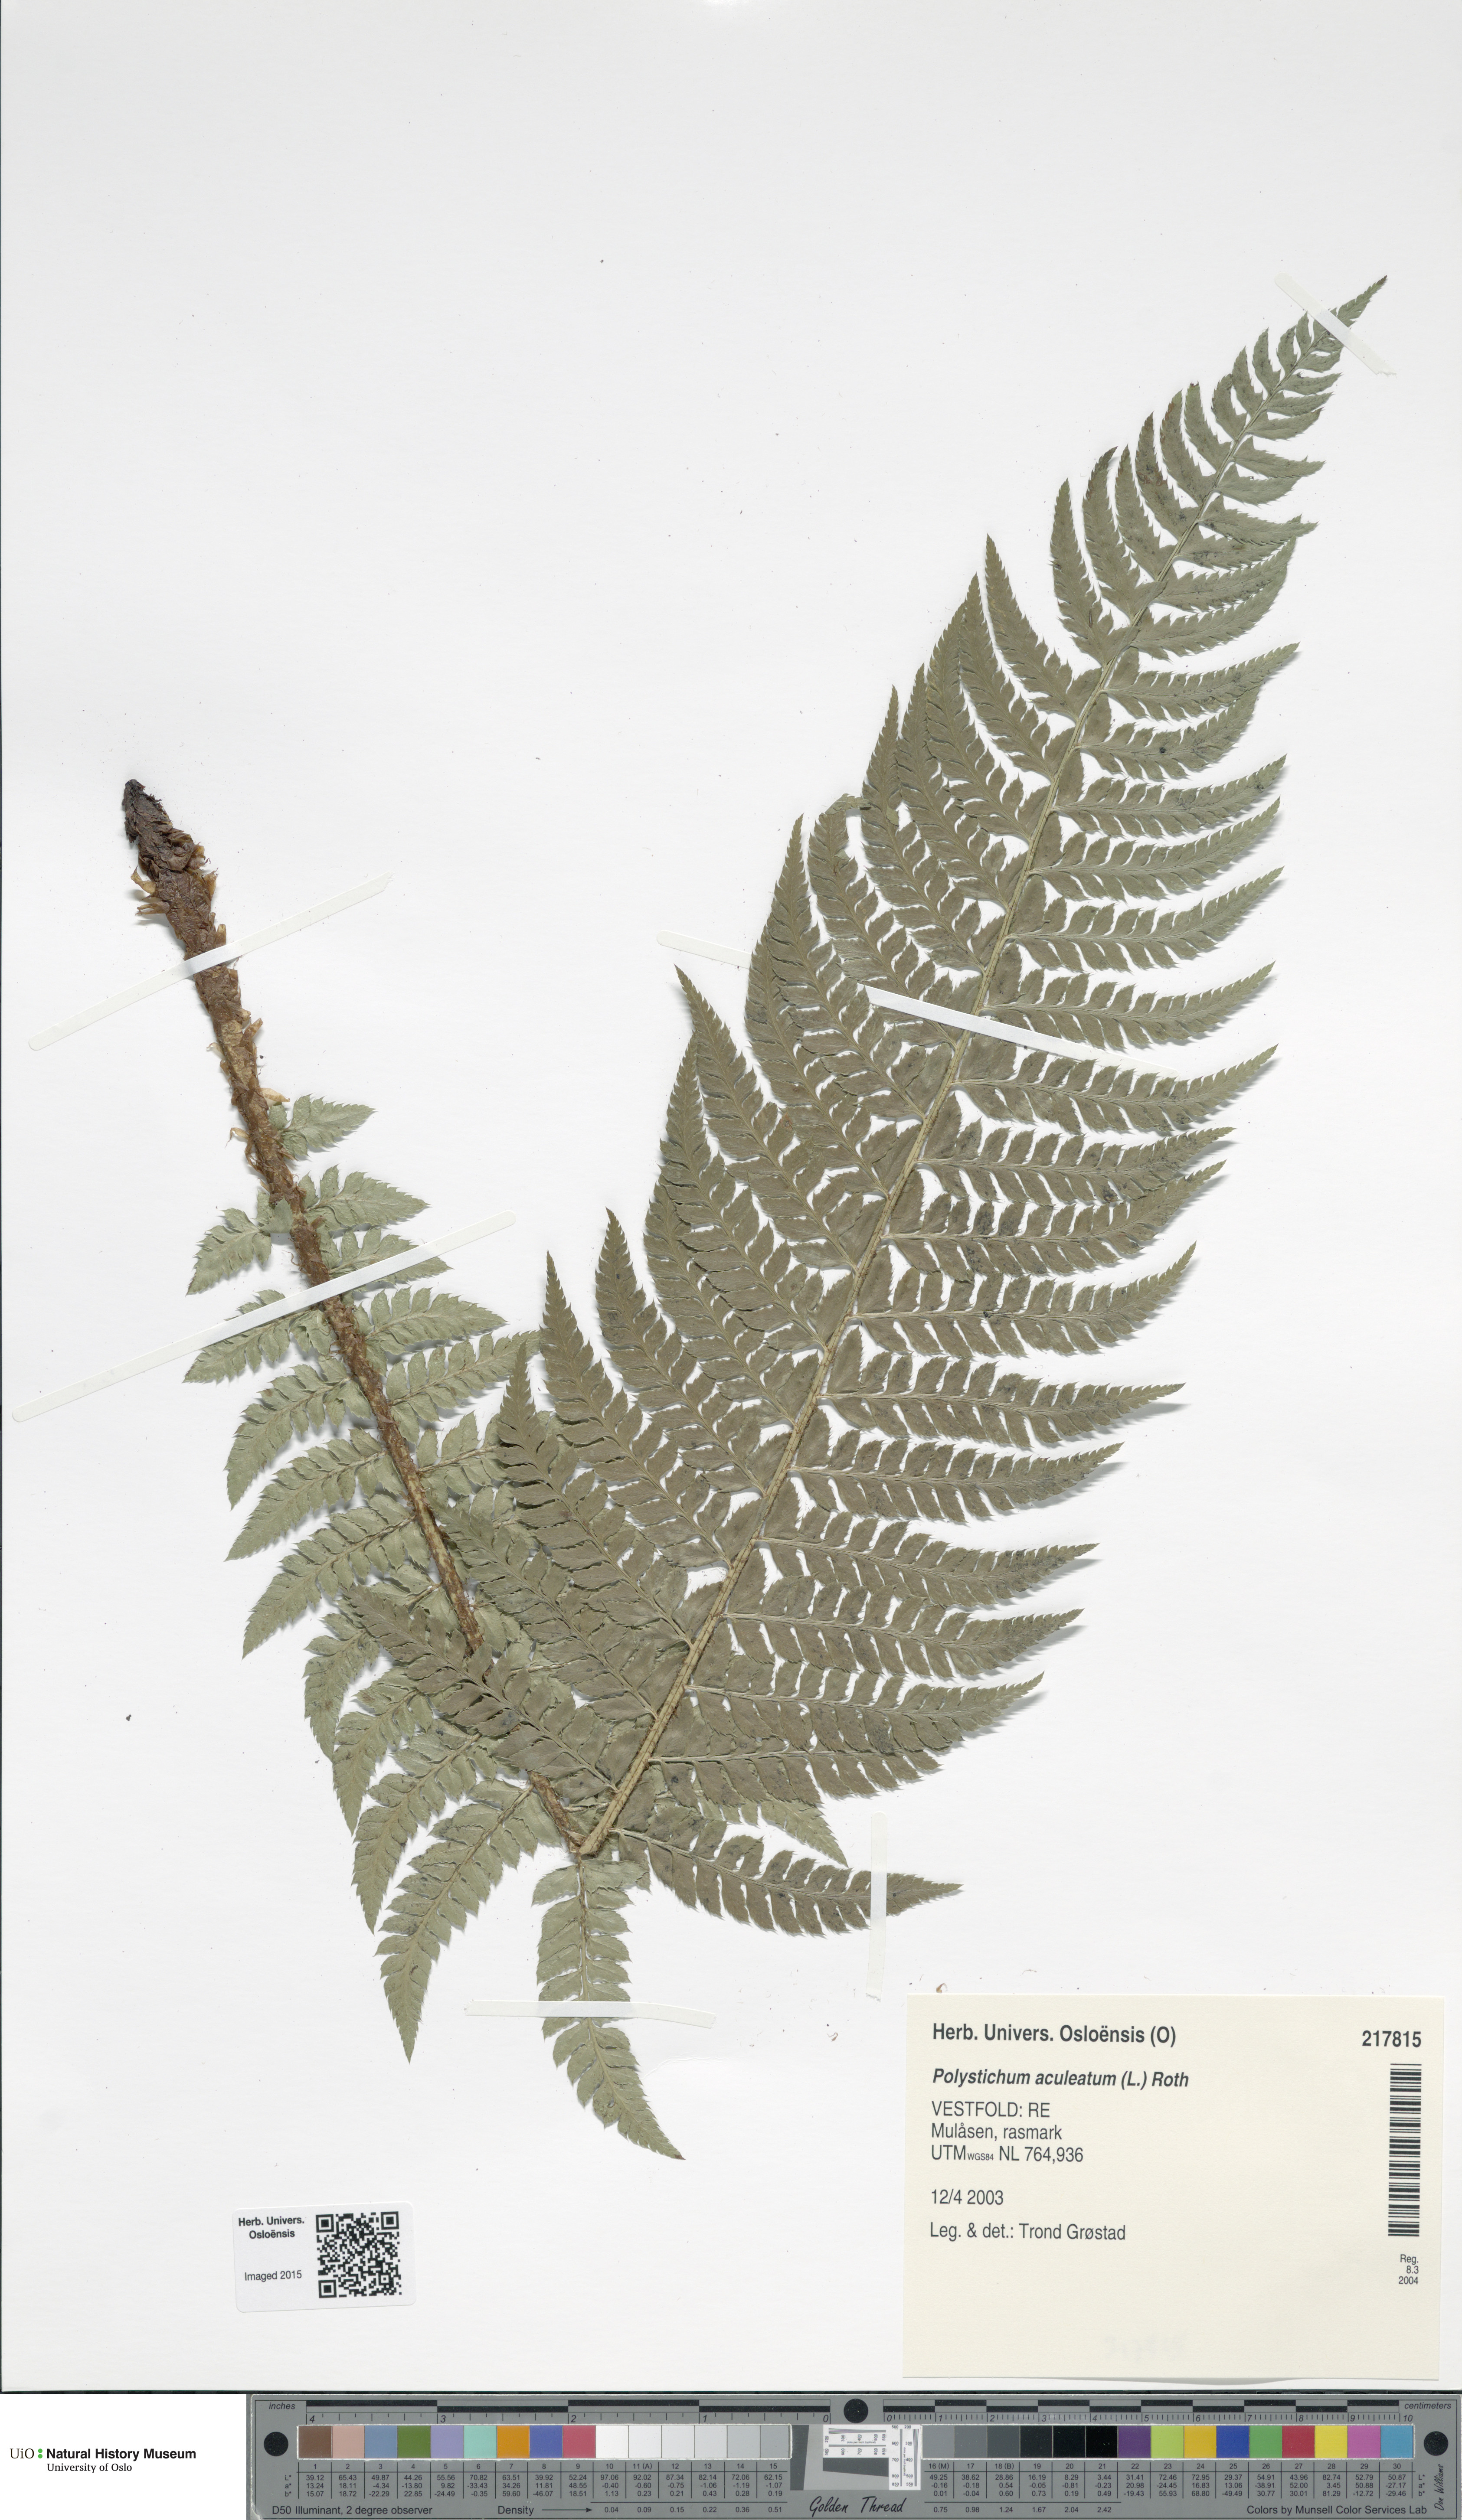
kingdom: Plantae
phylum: Tracheophyta
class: Polypodiopsida
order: Polypodiales
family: Dryopteridaceae
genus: Polystichum
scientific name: Polystichum aculeatum
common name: Hard shield-fern
